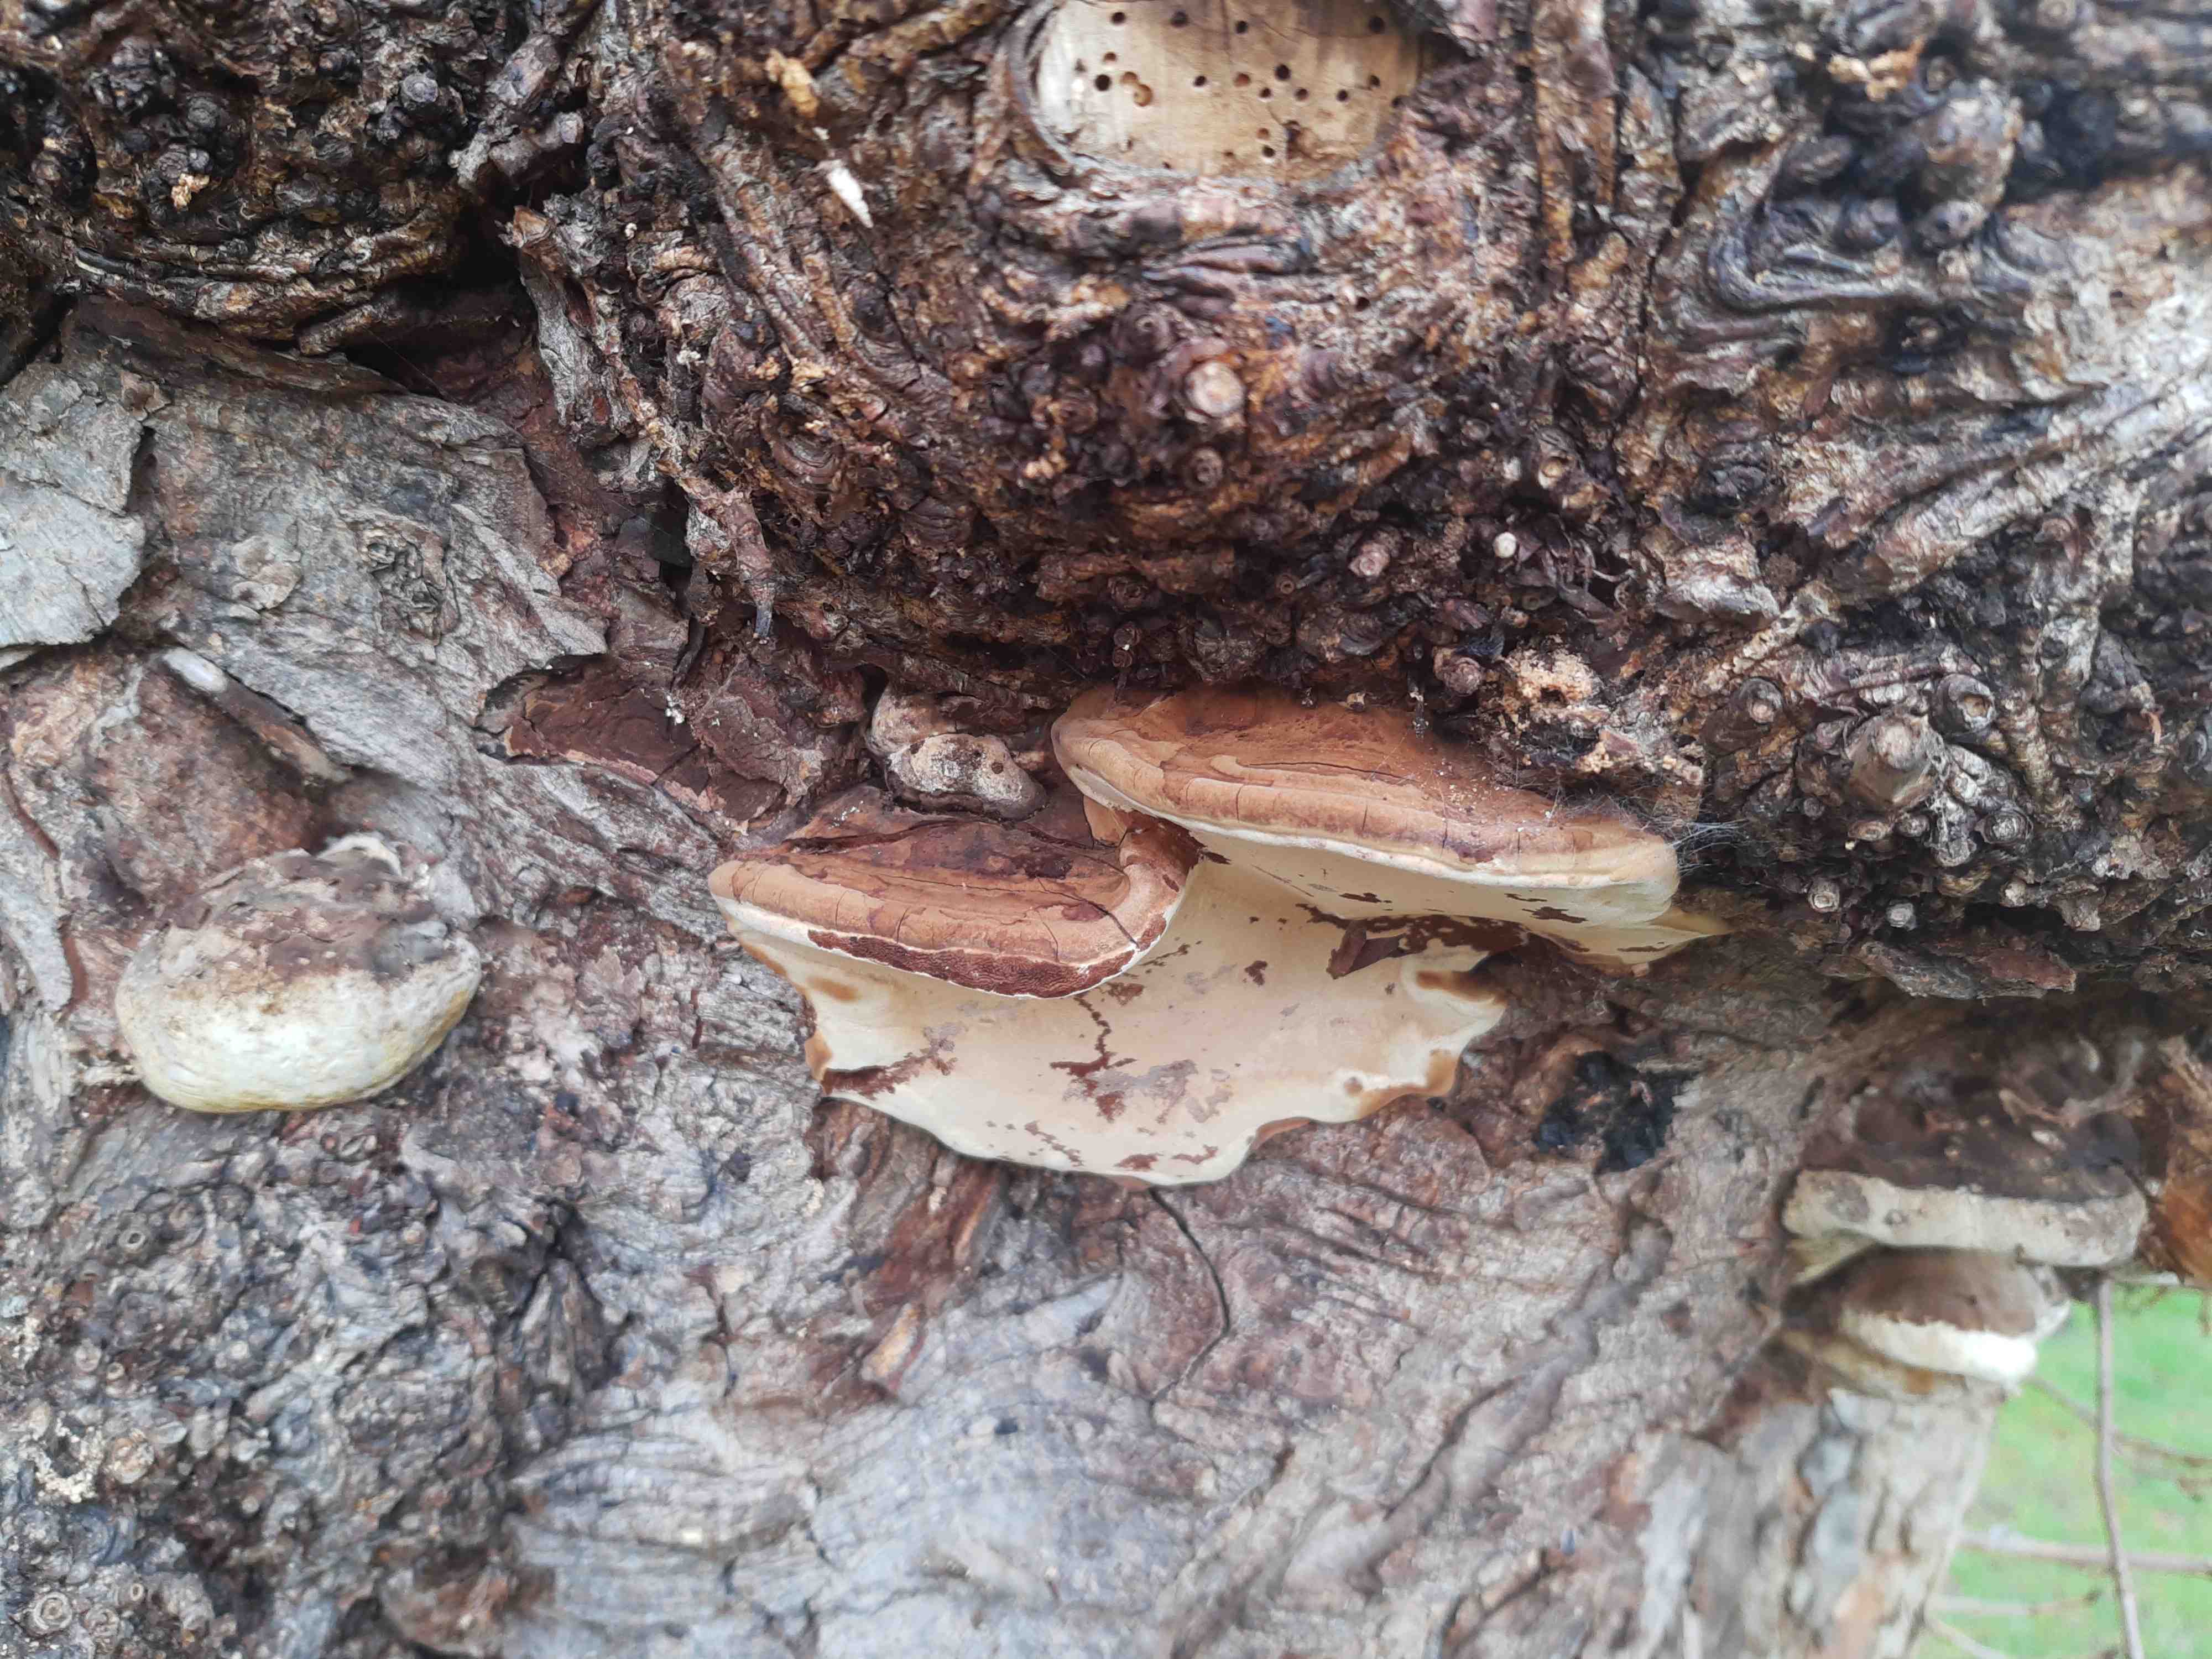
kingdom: Fungi
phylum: Basidiomycota
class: Agaricomycetes
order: Polyporales
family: Polyporaceae
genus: Ganoderma
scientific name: Ganoderma adspersum
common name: grov lakporesvamp
